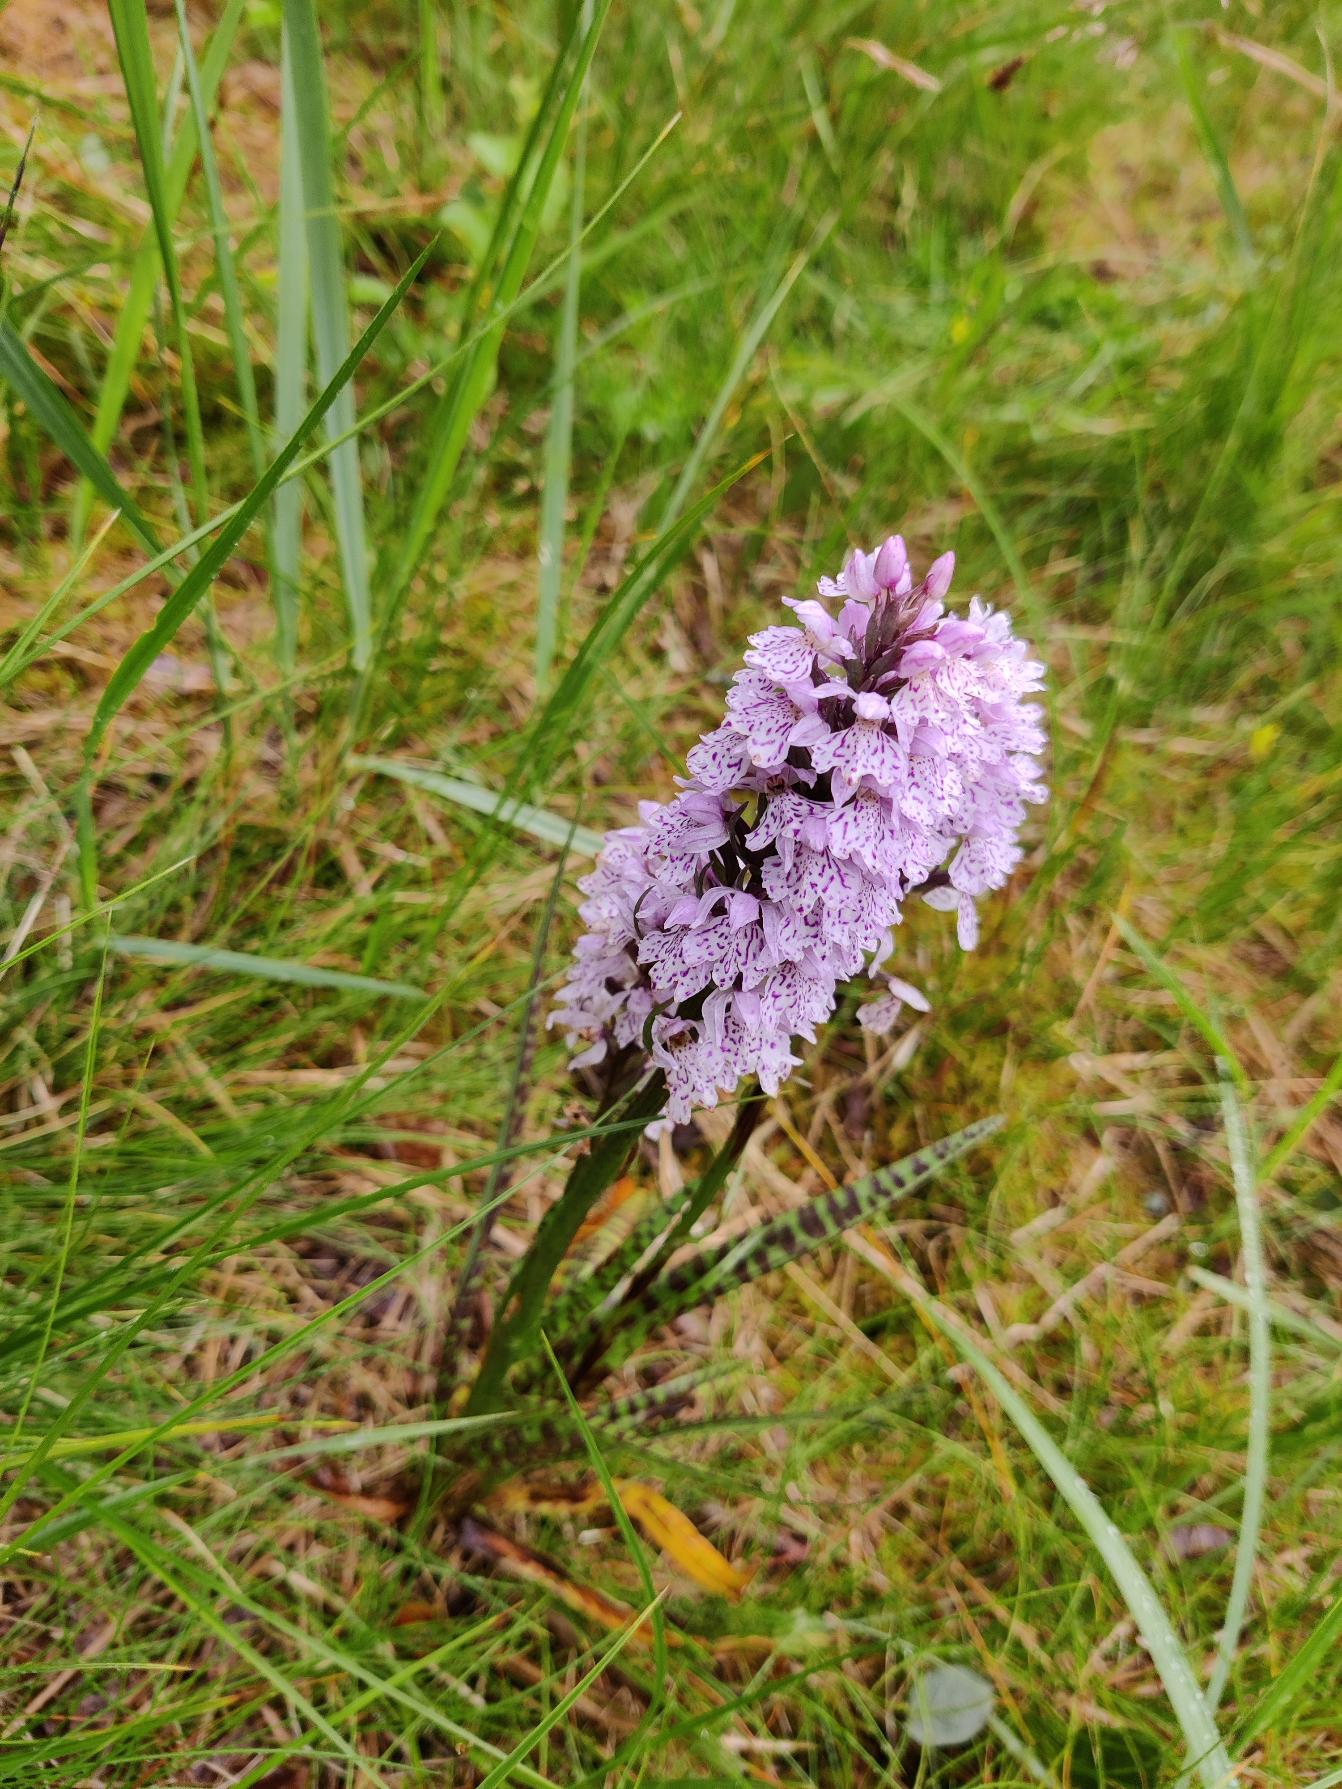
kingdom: Plantae
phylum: Tracheophyta
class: Liliopsida
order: Asparagales
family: Orchidaceae
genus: Dactylorhiza
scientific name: Dactylorhiza maculata
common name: Plettet gøgeurt
